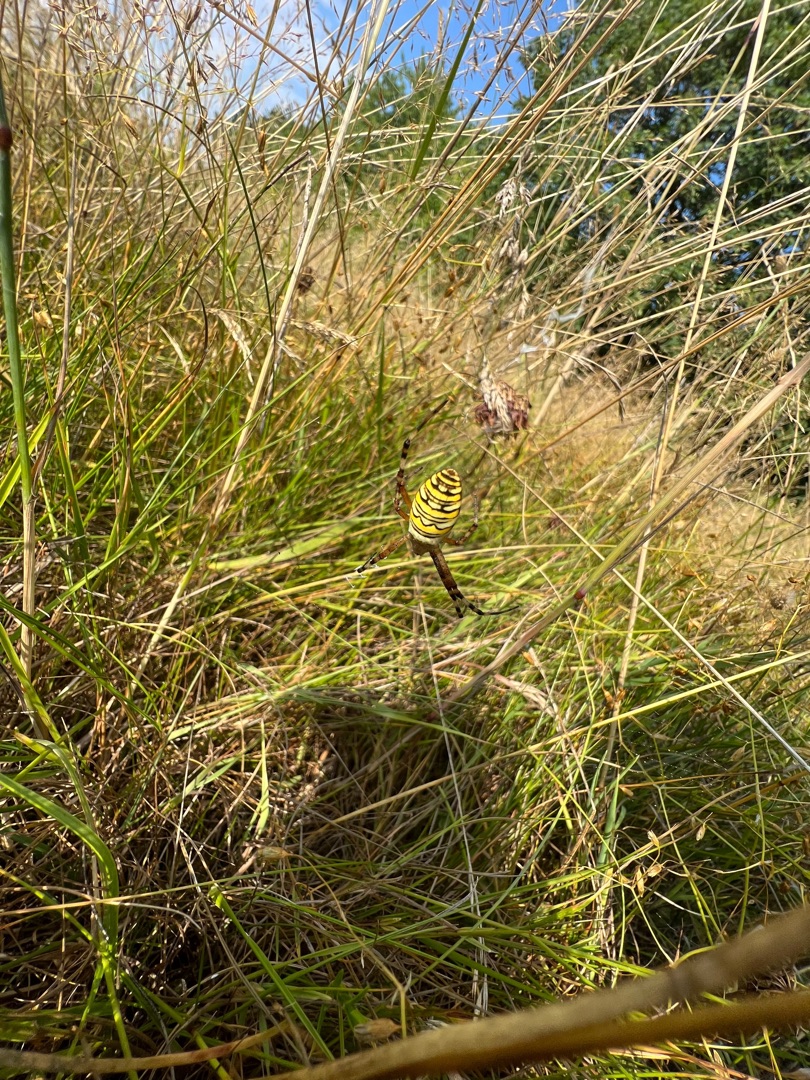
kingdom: Animalia
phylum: Arthropoda
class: Arachnida
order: Araneae
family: Araneidae
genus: Argiope
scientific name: Argiope bruennichi
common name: Hvepseedderkop
